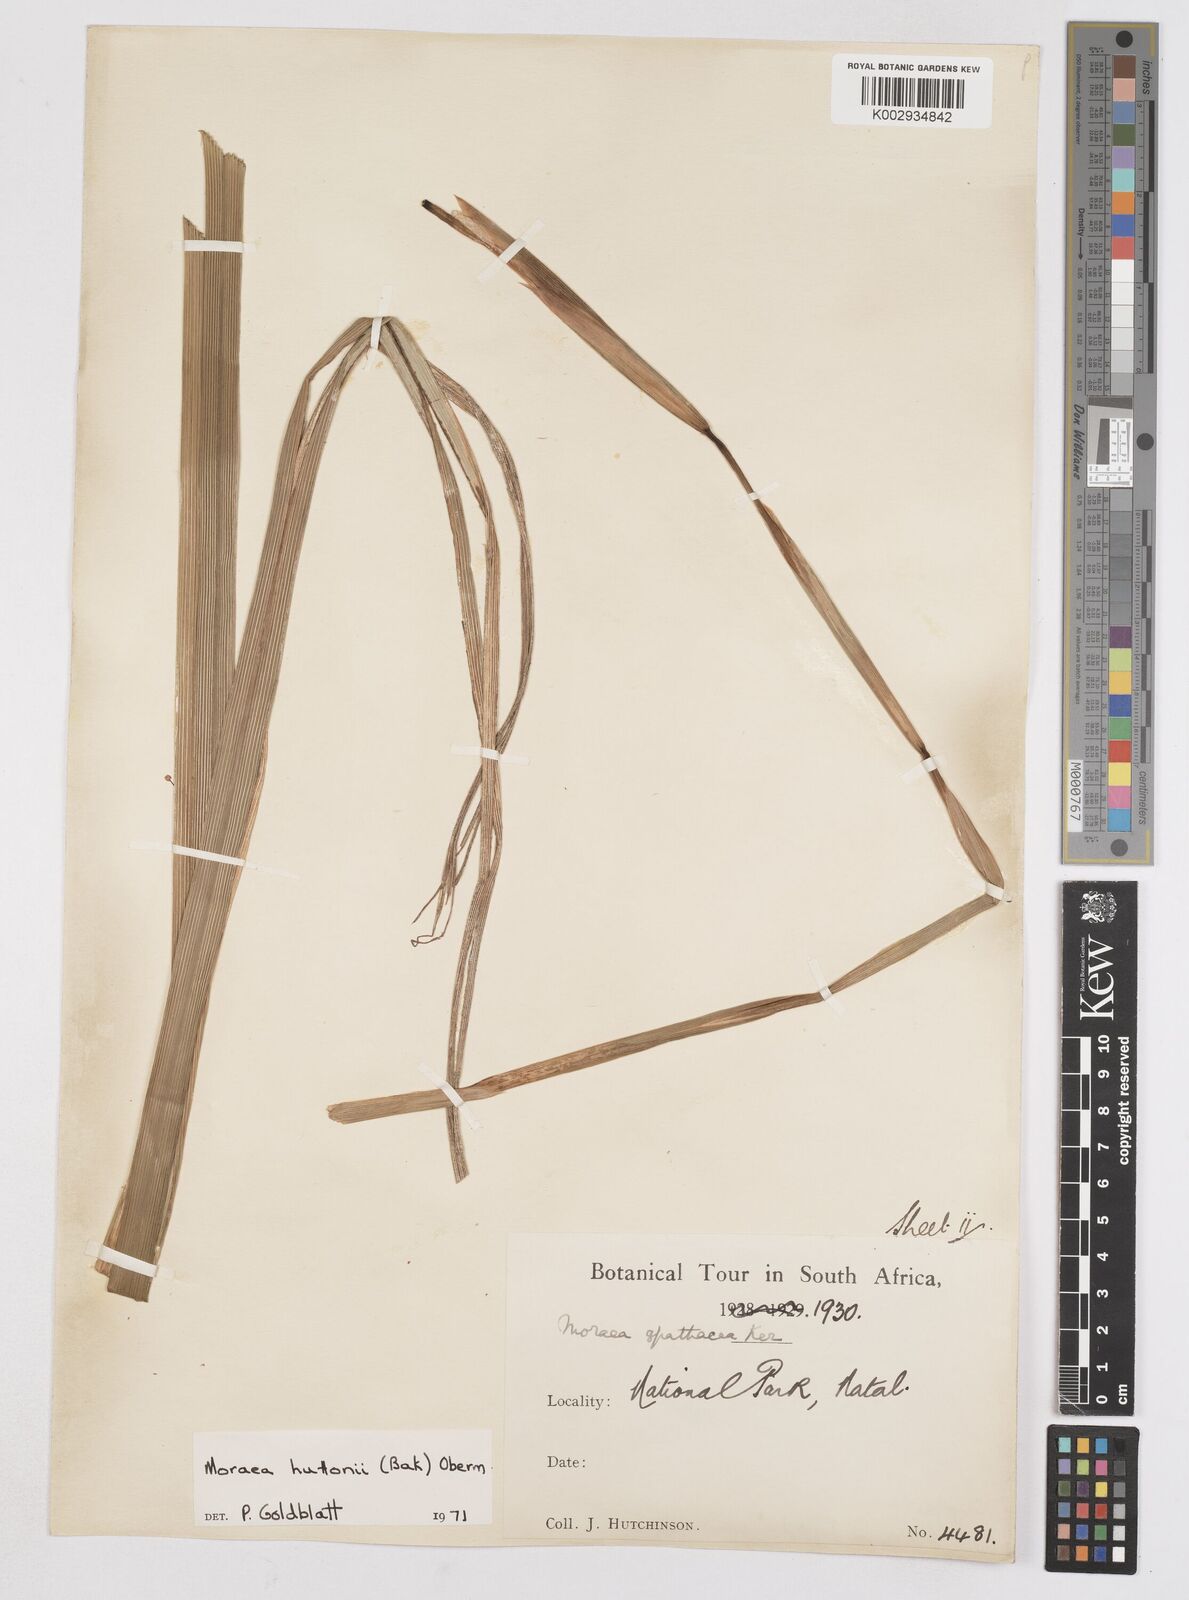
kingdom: Plantae
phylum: Tracheophyta
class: Liliopsida
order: Asparagales
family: Iridaceae
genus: Moraea
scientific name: Moraea huttonii
